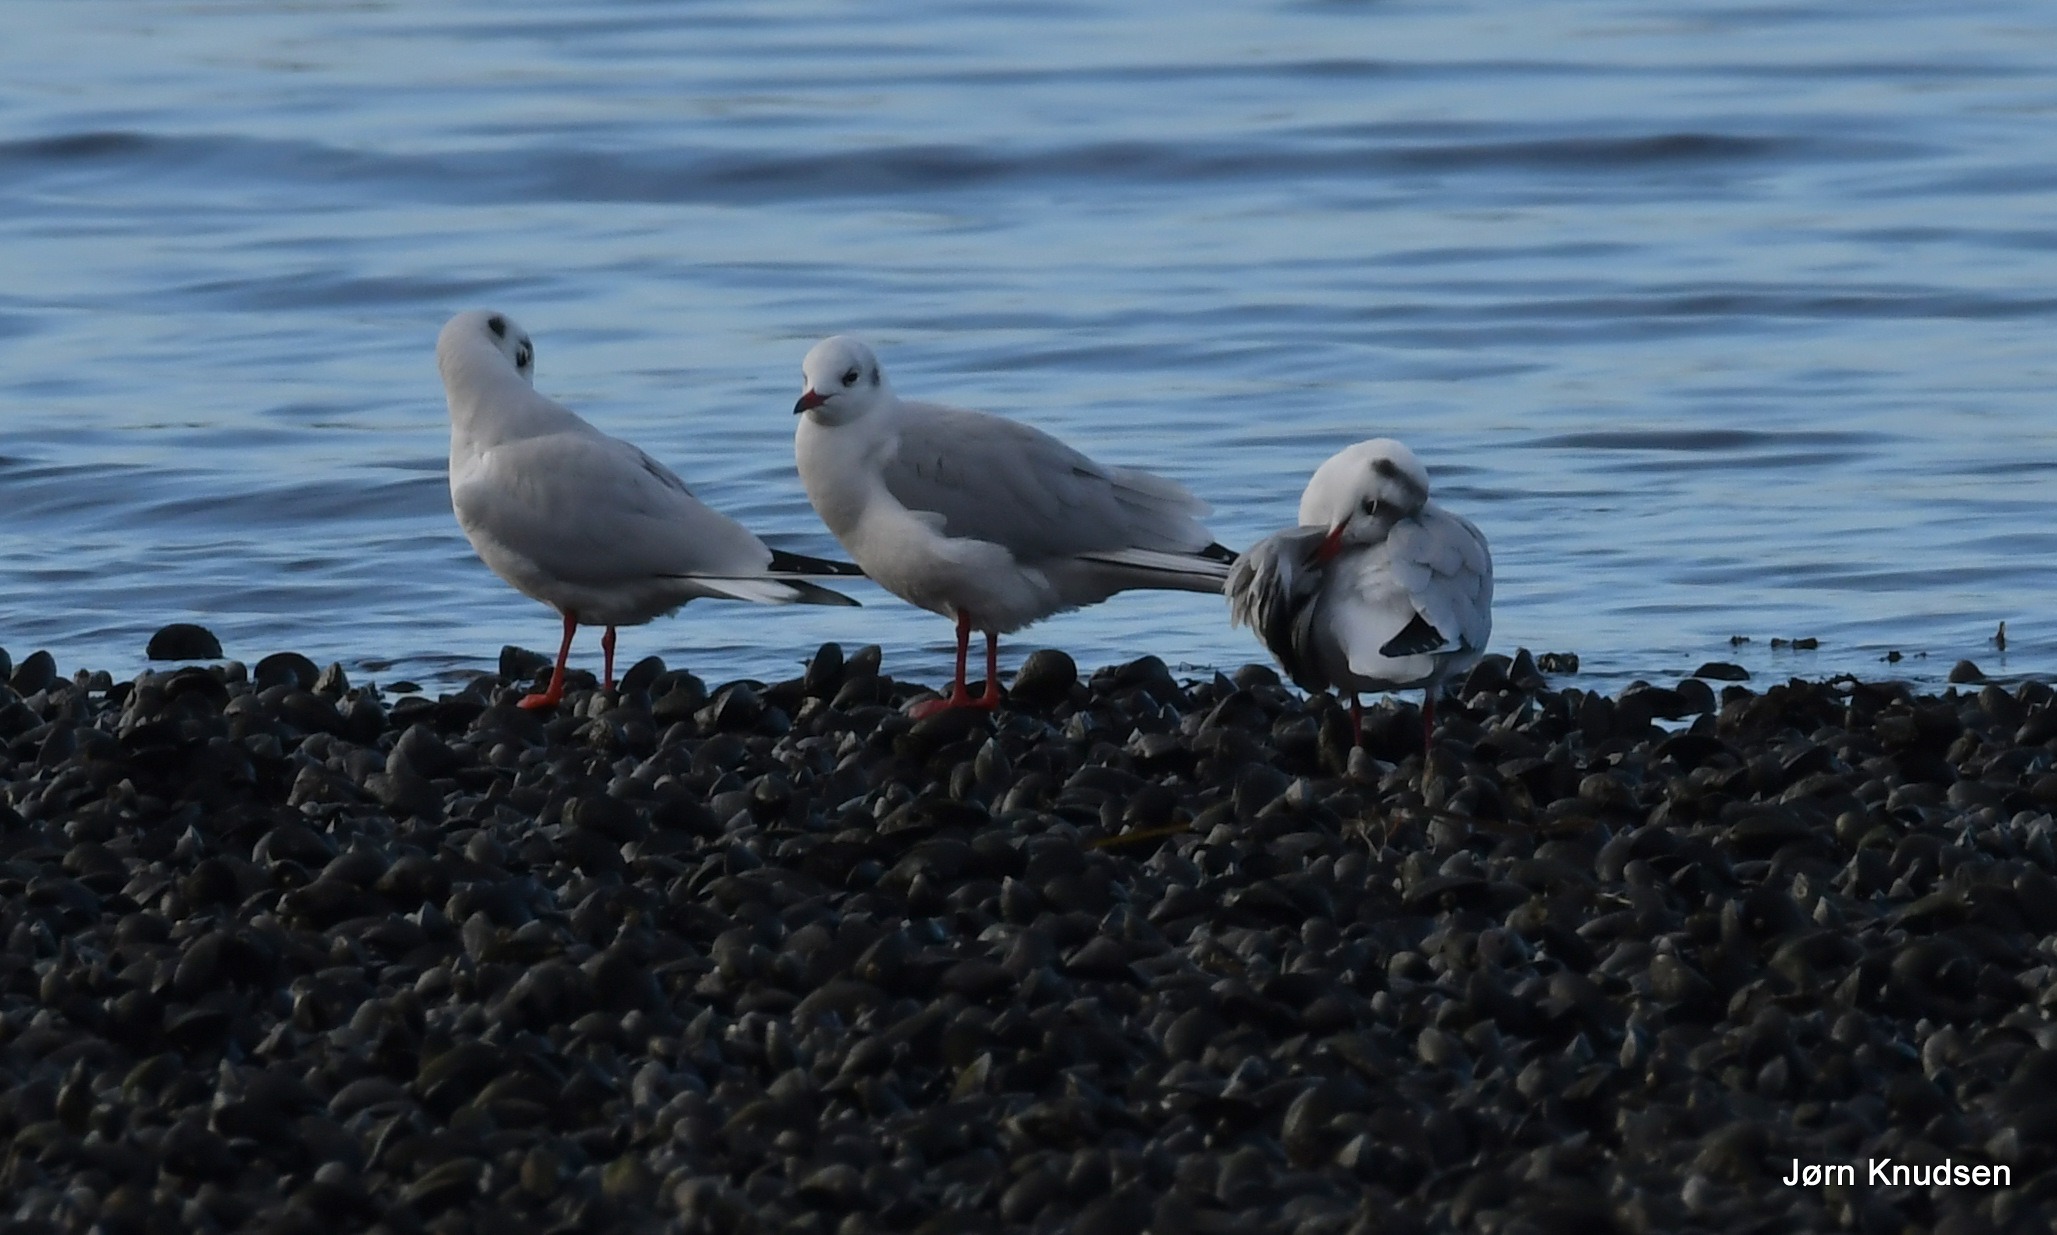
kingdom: Animalia
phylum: Chordata
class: Aves
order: Charadriiformes
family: Laridae
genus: Chroicocephalus
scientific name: Chroicocephalus ridibundus
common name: Hættemåge
